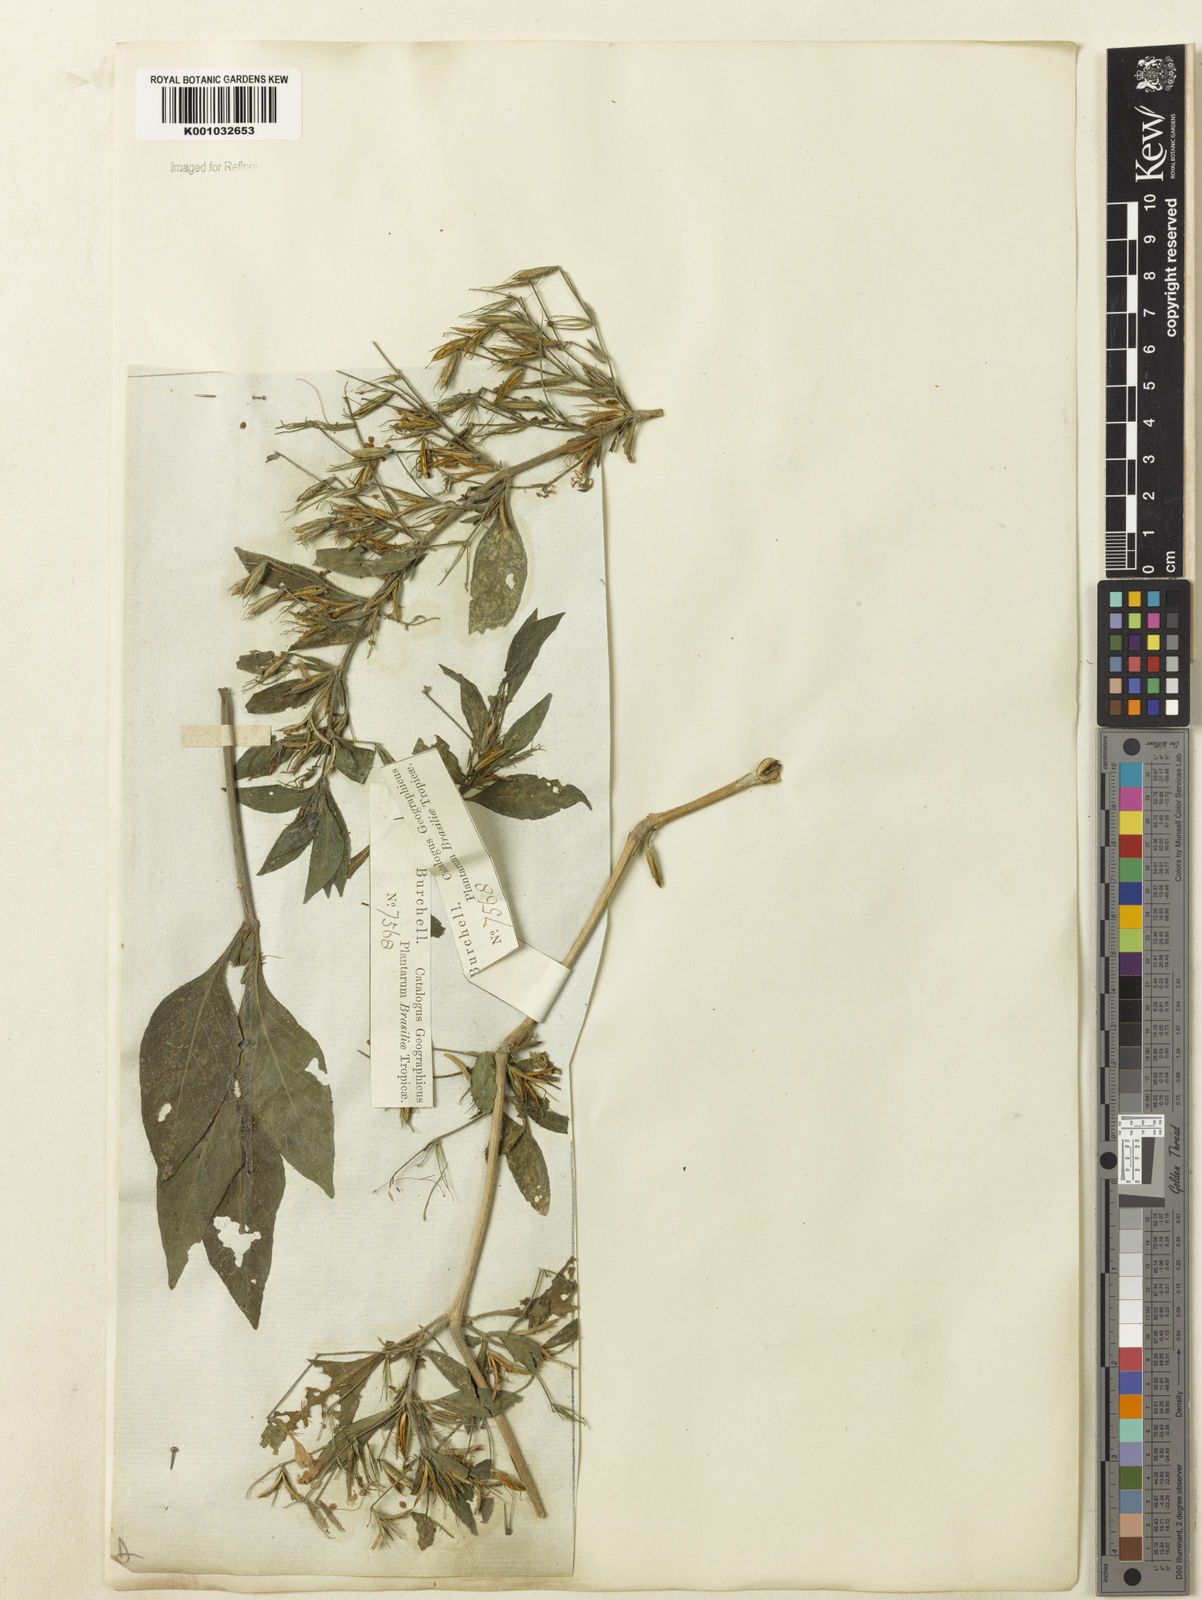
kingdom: Plantae
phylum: Tracheophyta
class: Magnoliopsida
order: Lamiales
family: Acanthaceae
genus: Ruellia
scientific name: Ruellia
